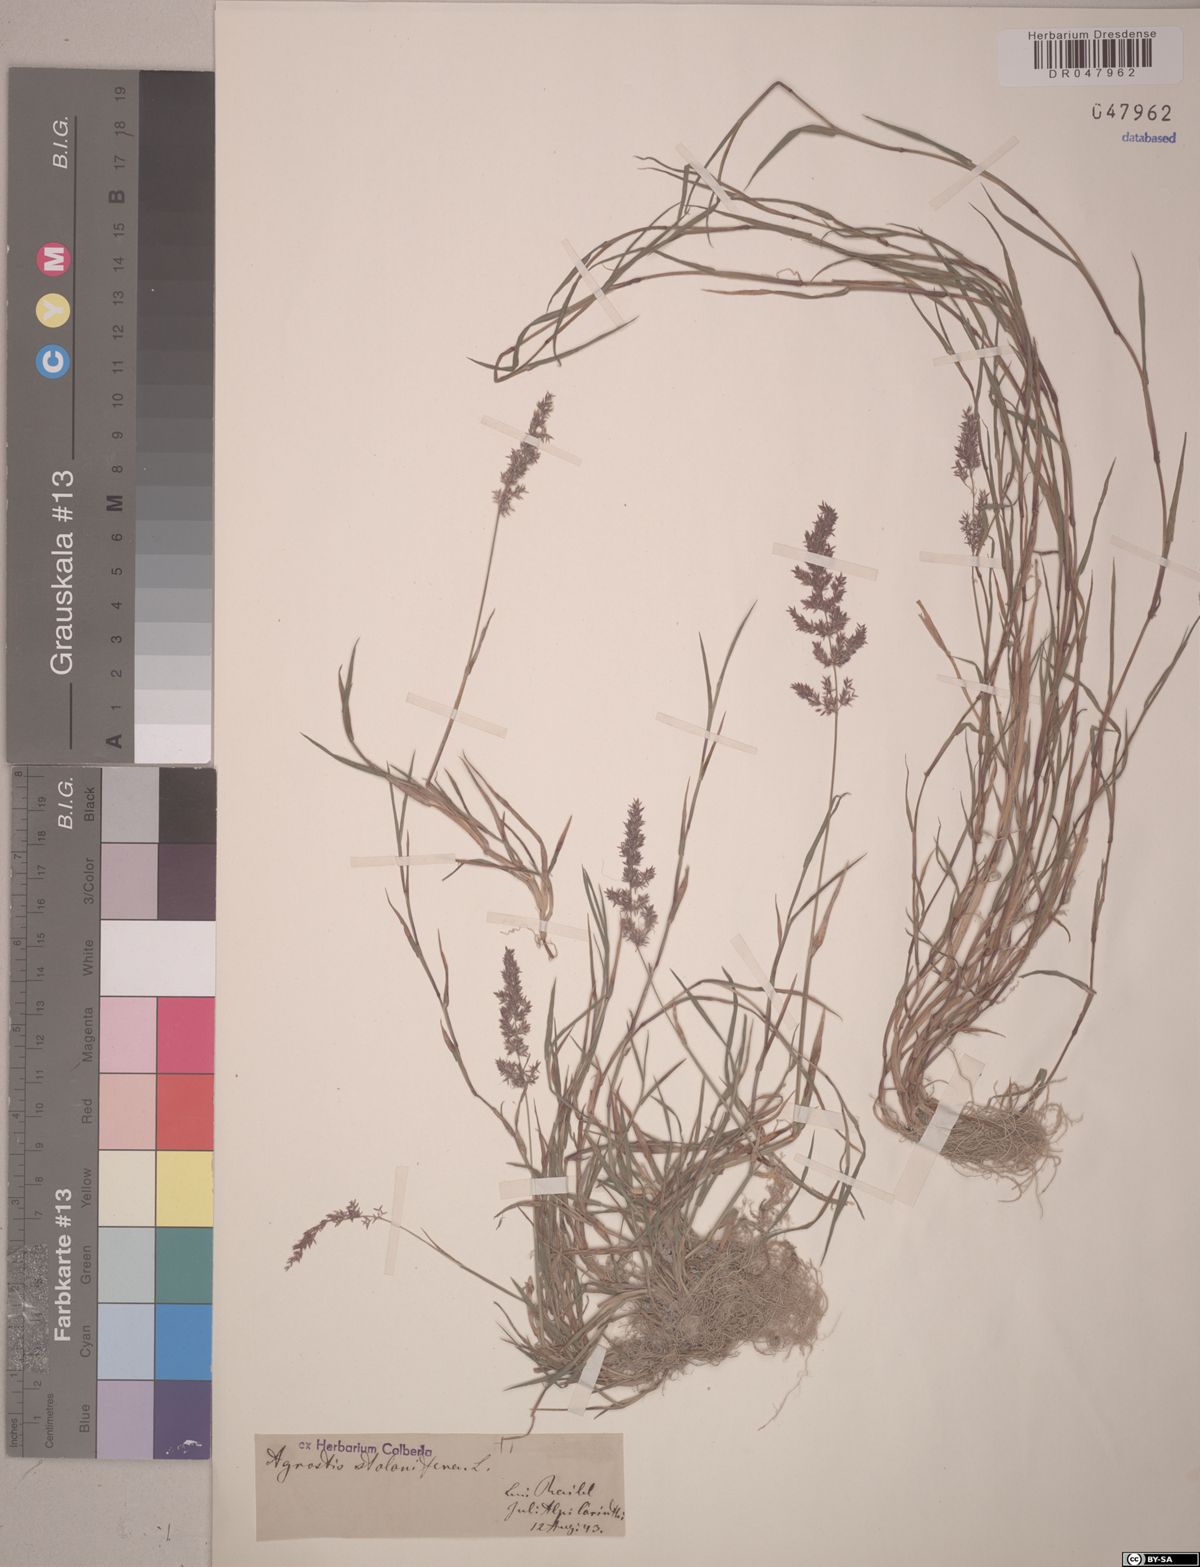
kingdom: Plantae
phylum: Tracheophyta
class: Liliopsida
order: Poales
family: Poaceae
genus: Agrostis
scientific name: Agrostis stolonifera
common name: Creeping bentgrass
